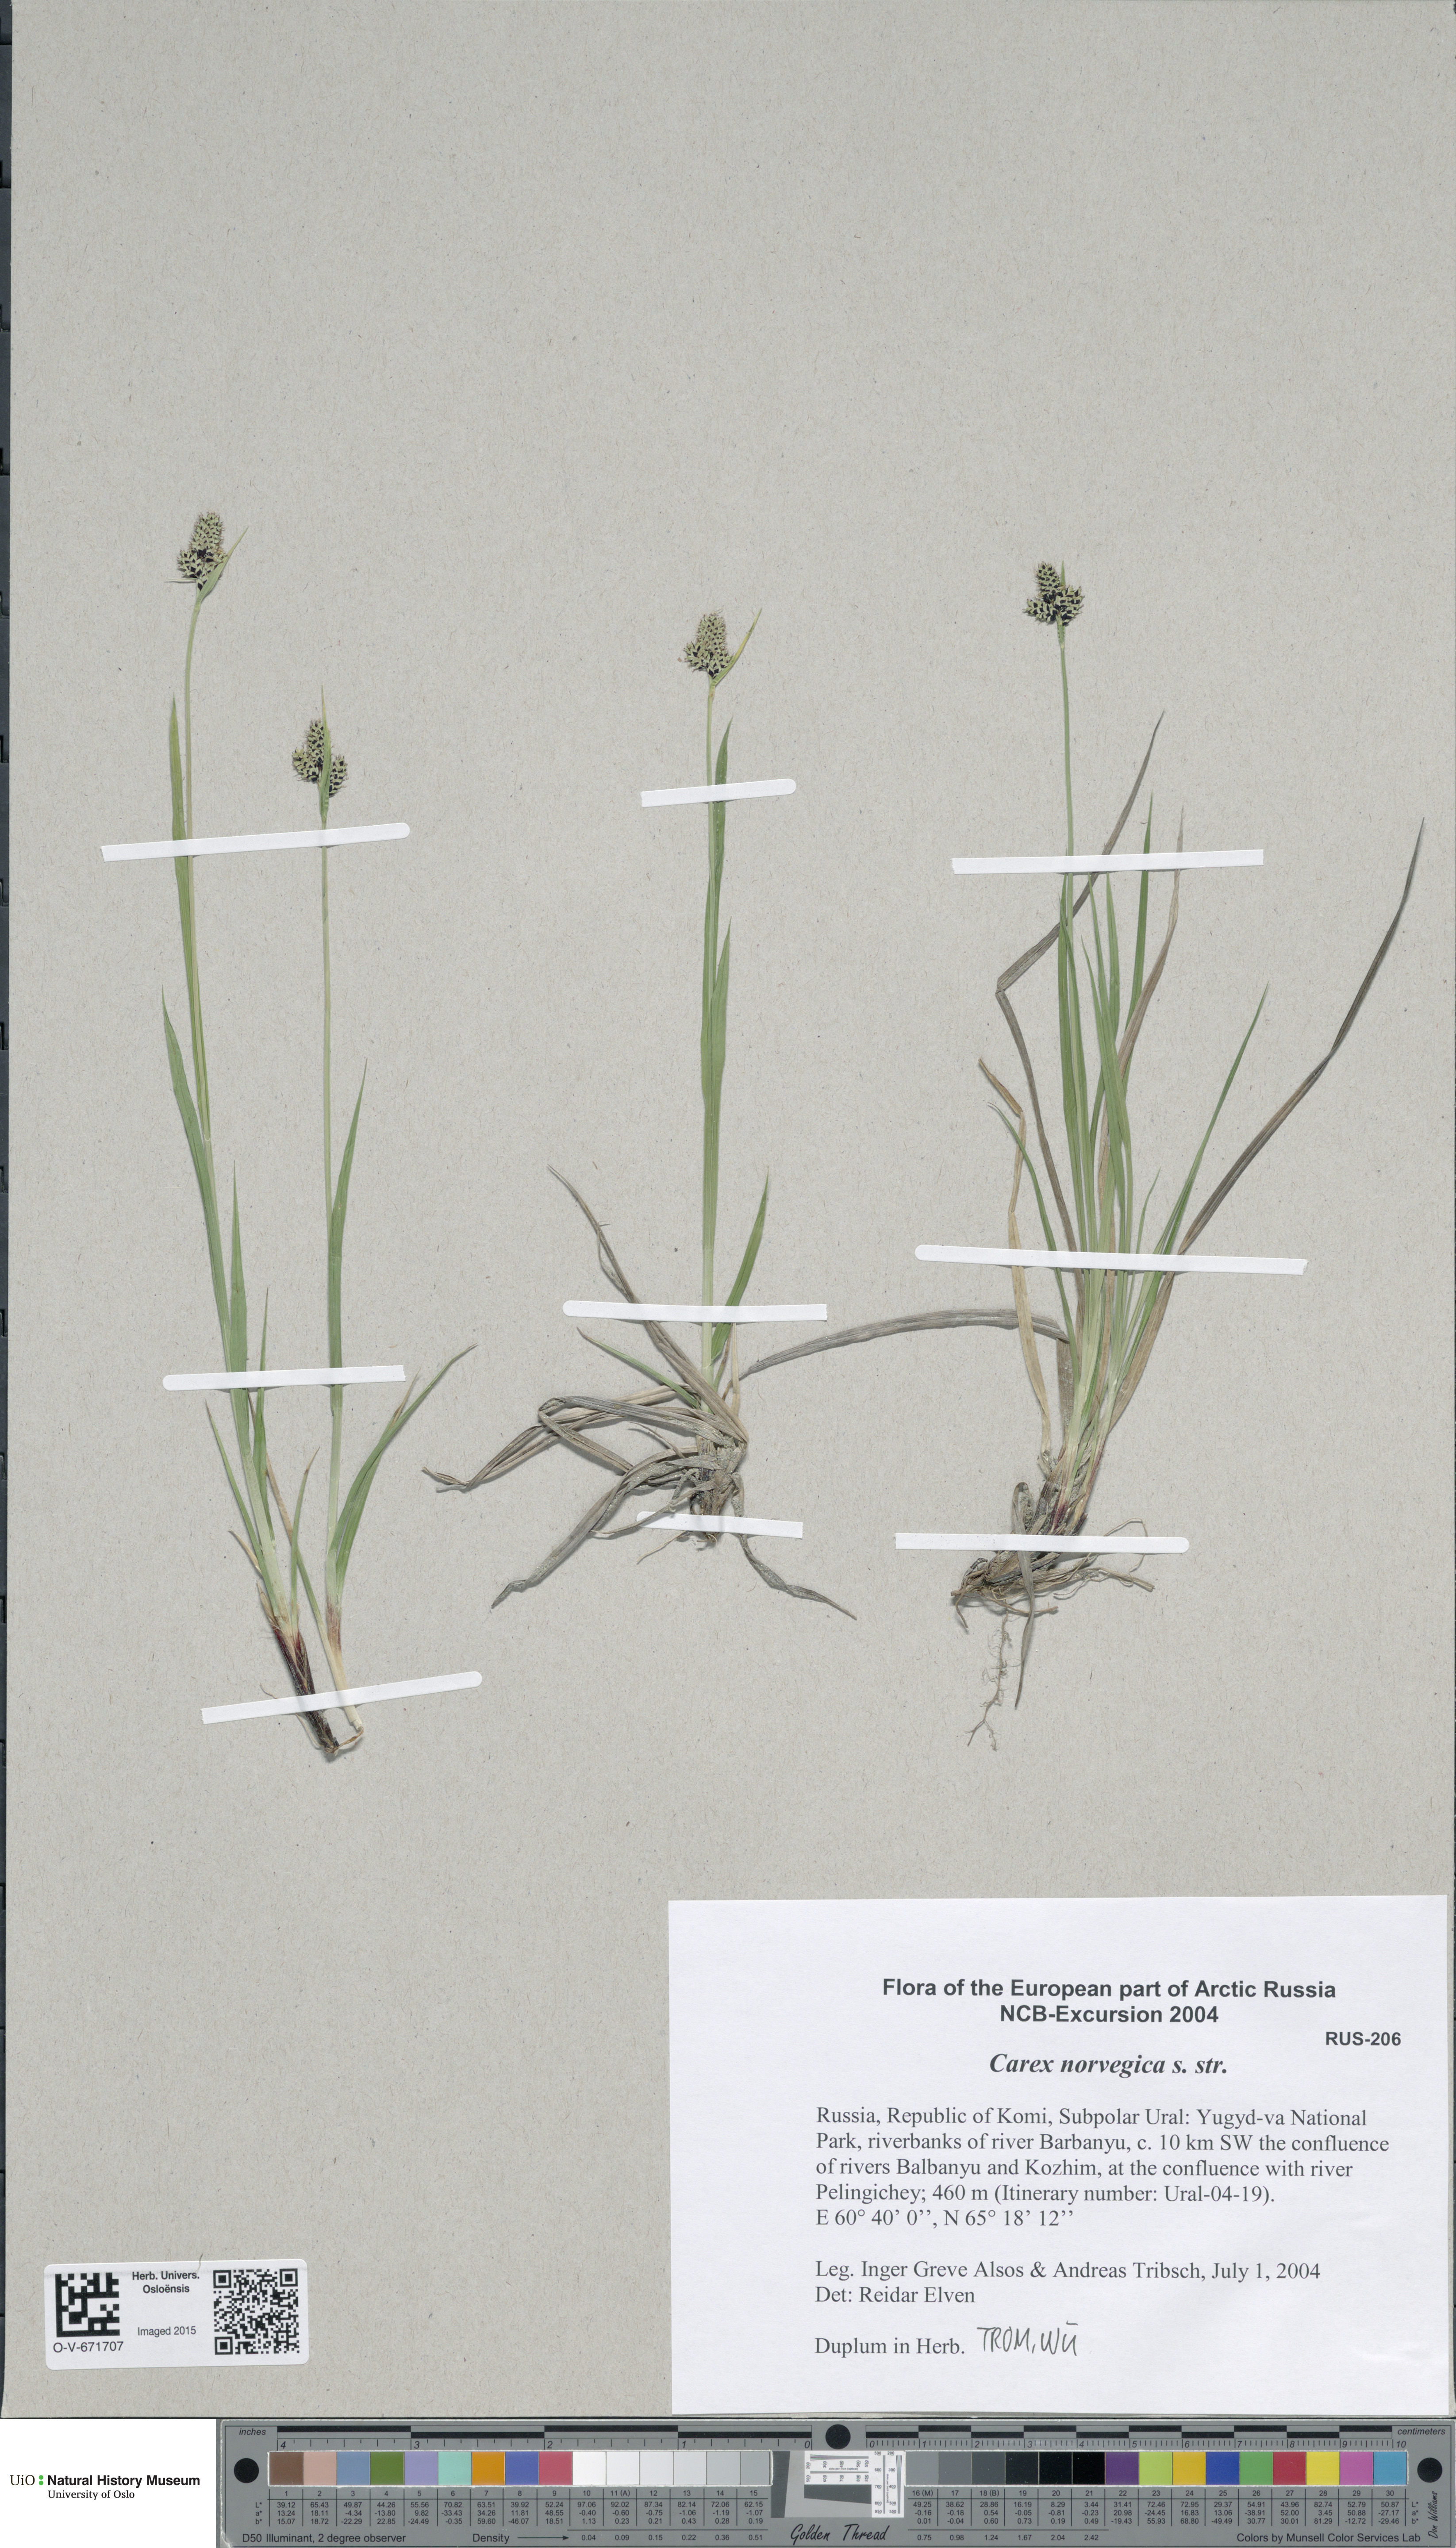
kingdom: Plantae
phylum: Tracheophyta
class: Liliopsida
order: Poales
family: Cyperaceae
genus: Carex
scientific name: Carex norvegica
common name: Close-headed alpine-sedge
